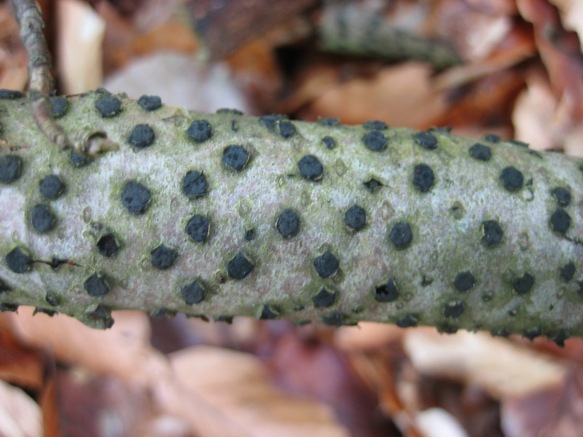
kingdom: Fungi
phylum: Ascomycota
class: Sordariomycetes
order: Xylariales
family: Diatrypaceae
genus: Diatrype
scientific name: Diatrype disciformis
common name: kant-kulskorpe
